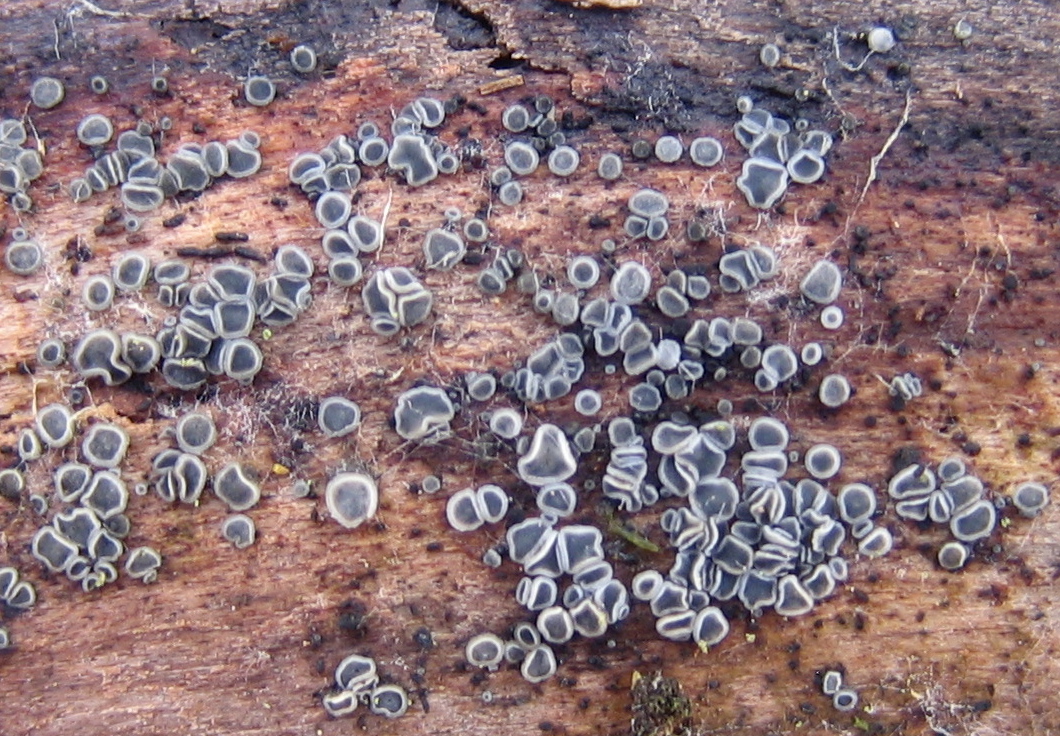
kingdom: Fungi
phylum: Ascomycota
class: Leotiomycetes
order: Helotiales
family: Mollisiaceae
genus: Mollisia
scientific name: Mollisia
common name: gråskive
